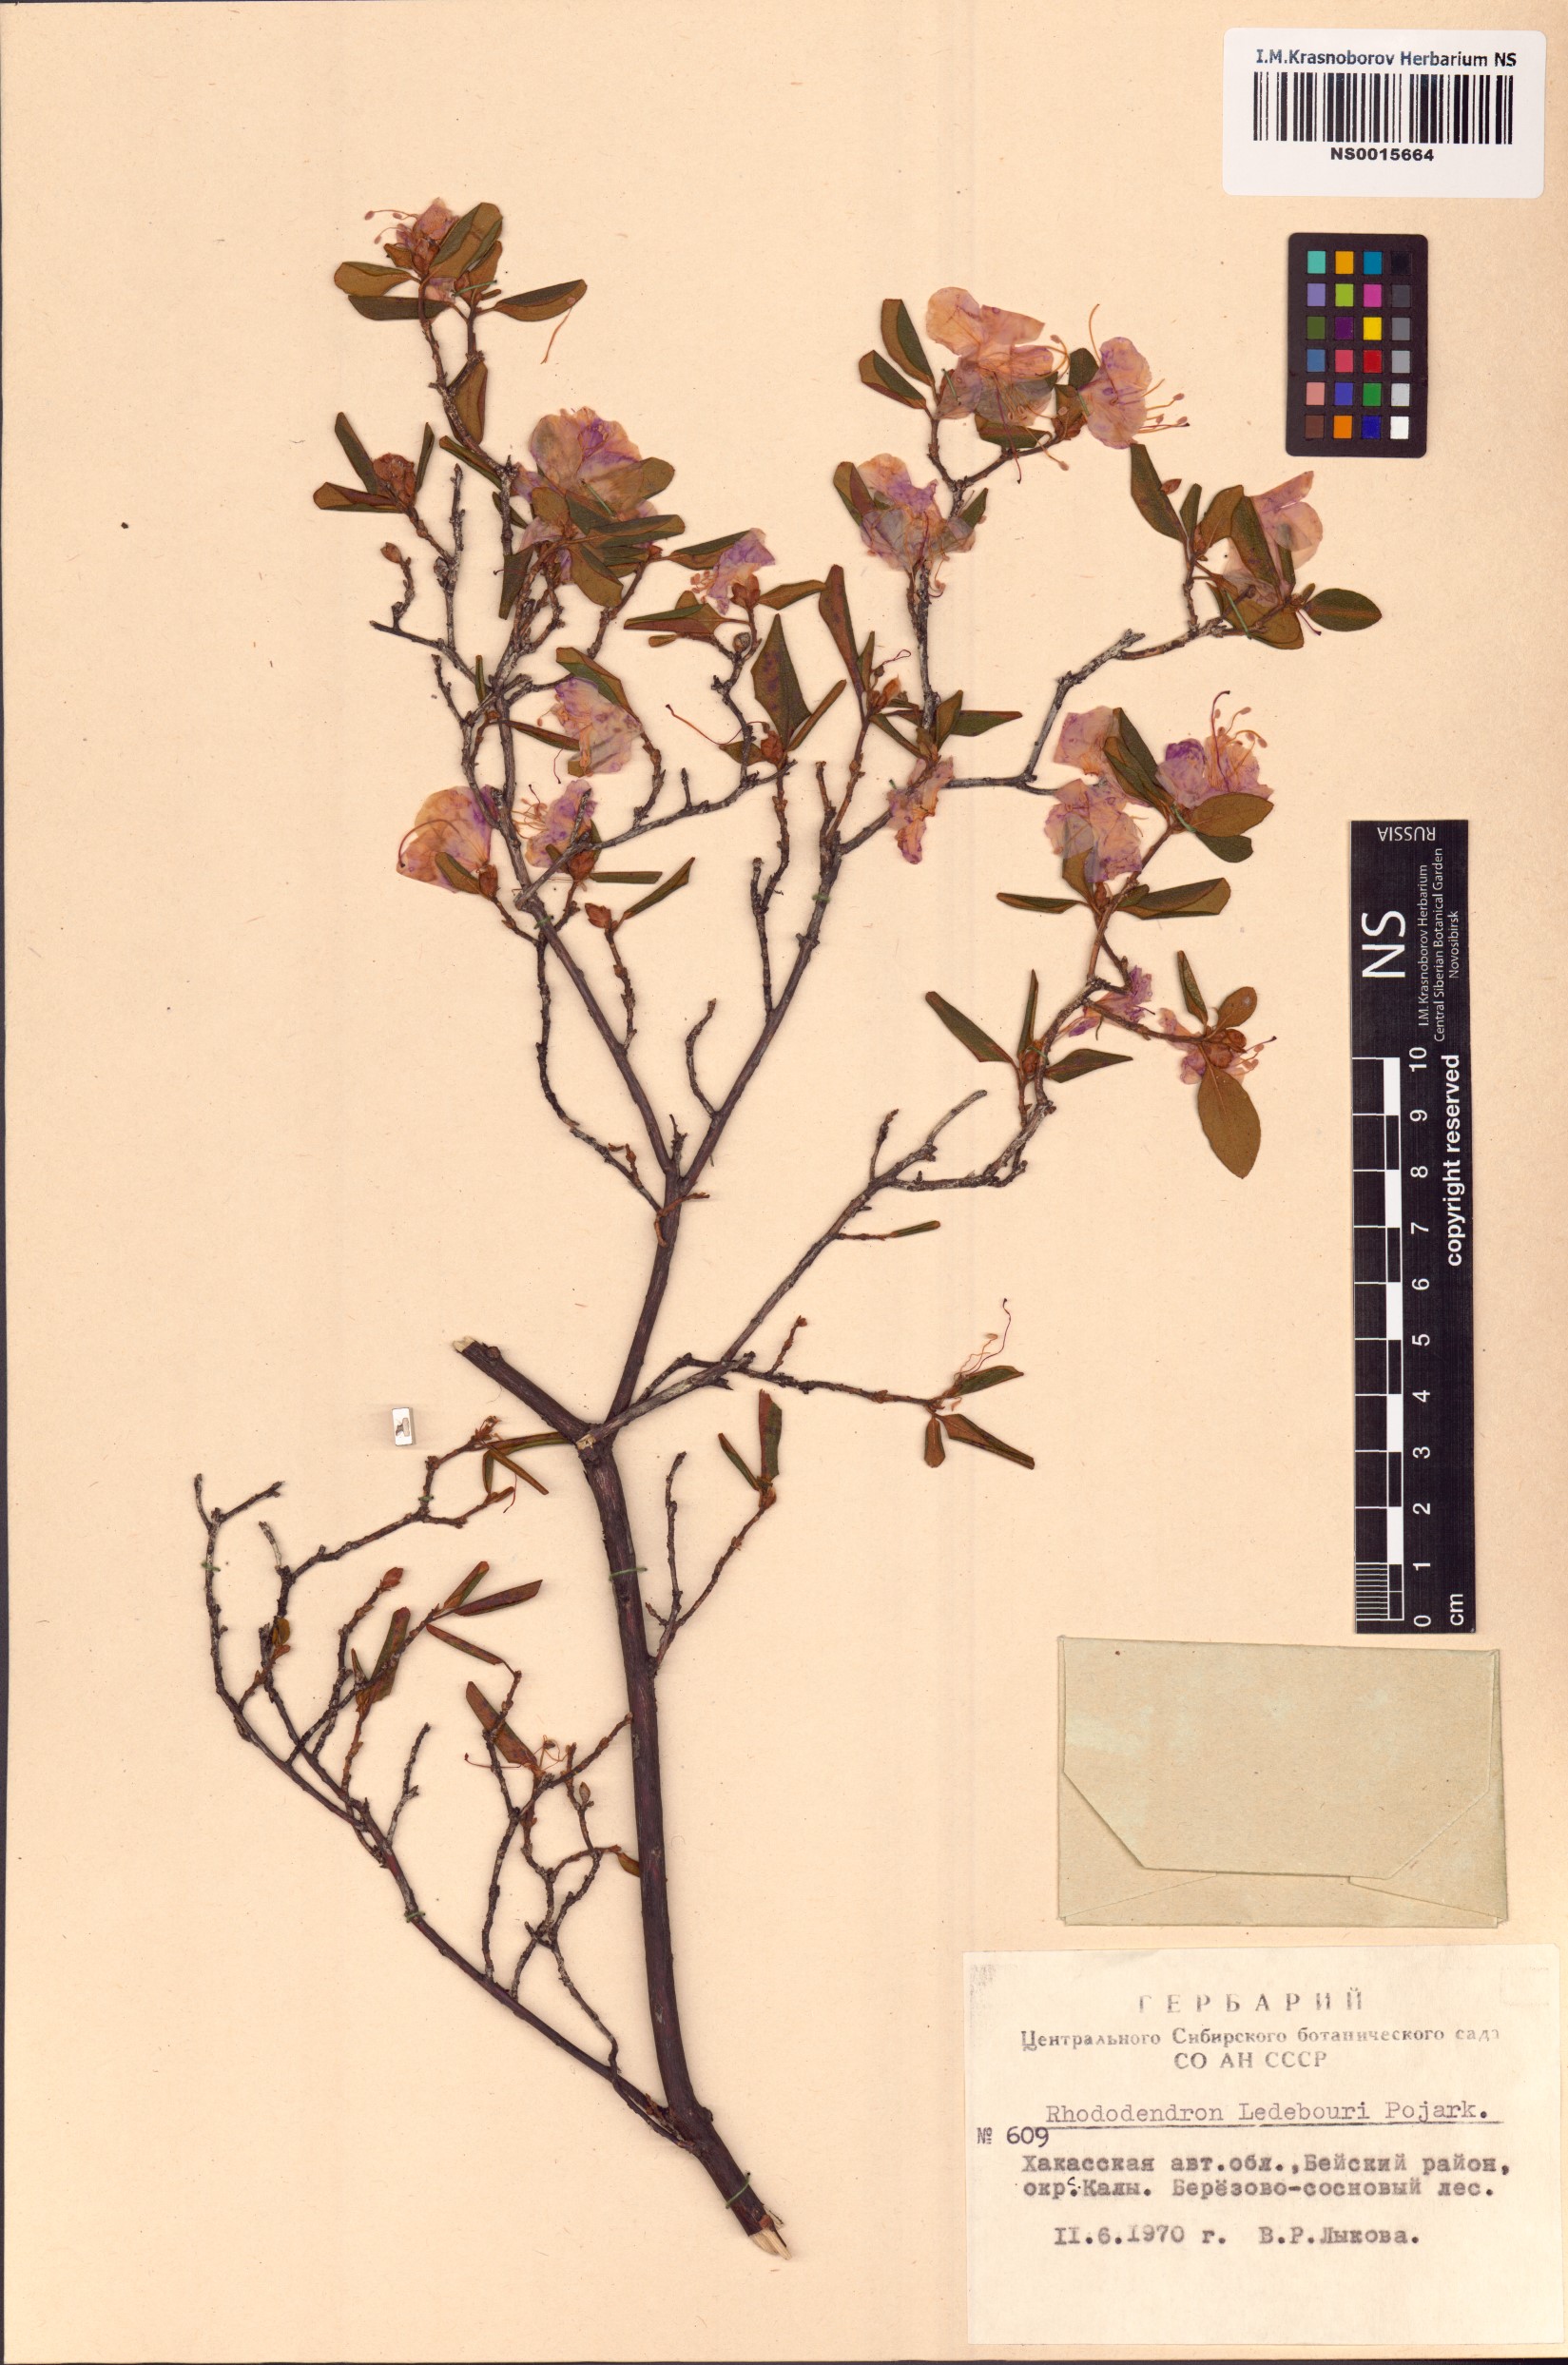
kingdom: Plantae
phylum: Tracheophyta
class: Magnoliopsida
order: Ericales
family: Ericaceae
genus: Rhododendron
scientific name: Rhododendron dauricum
